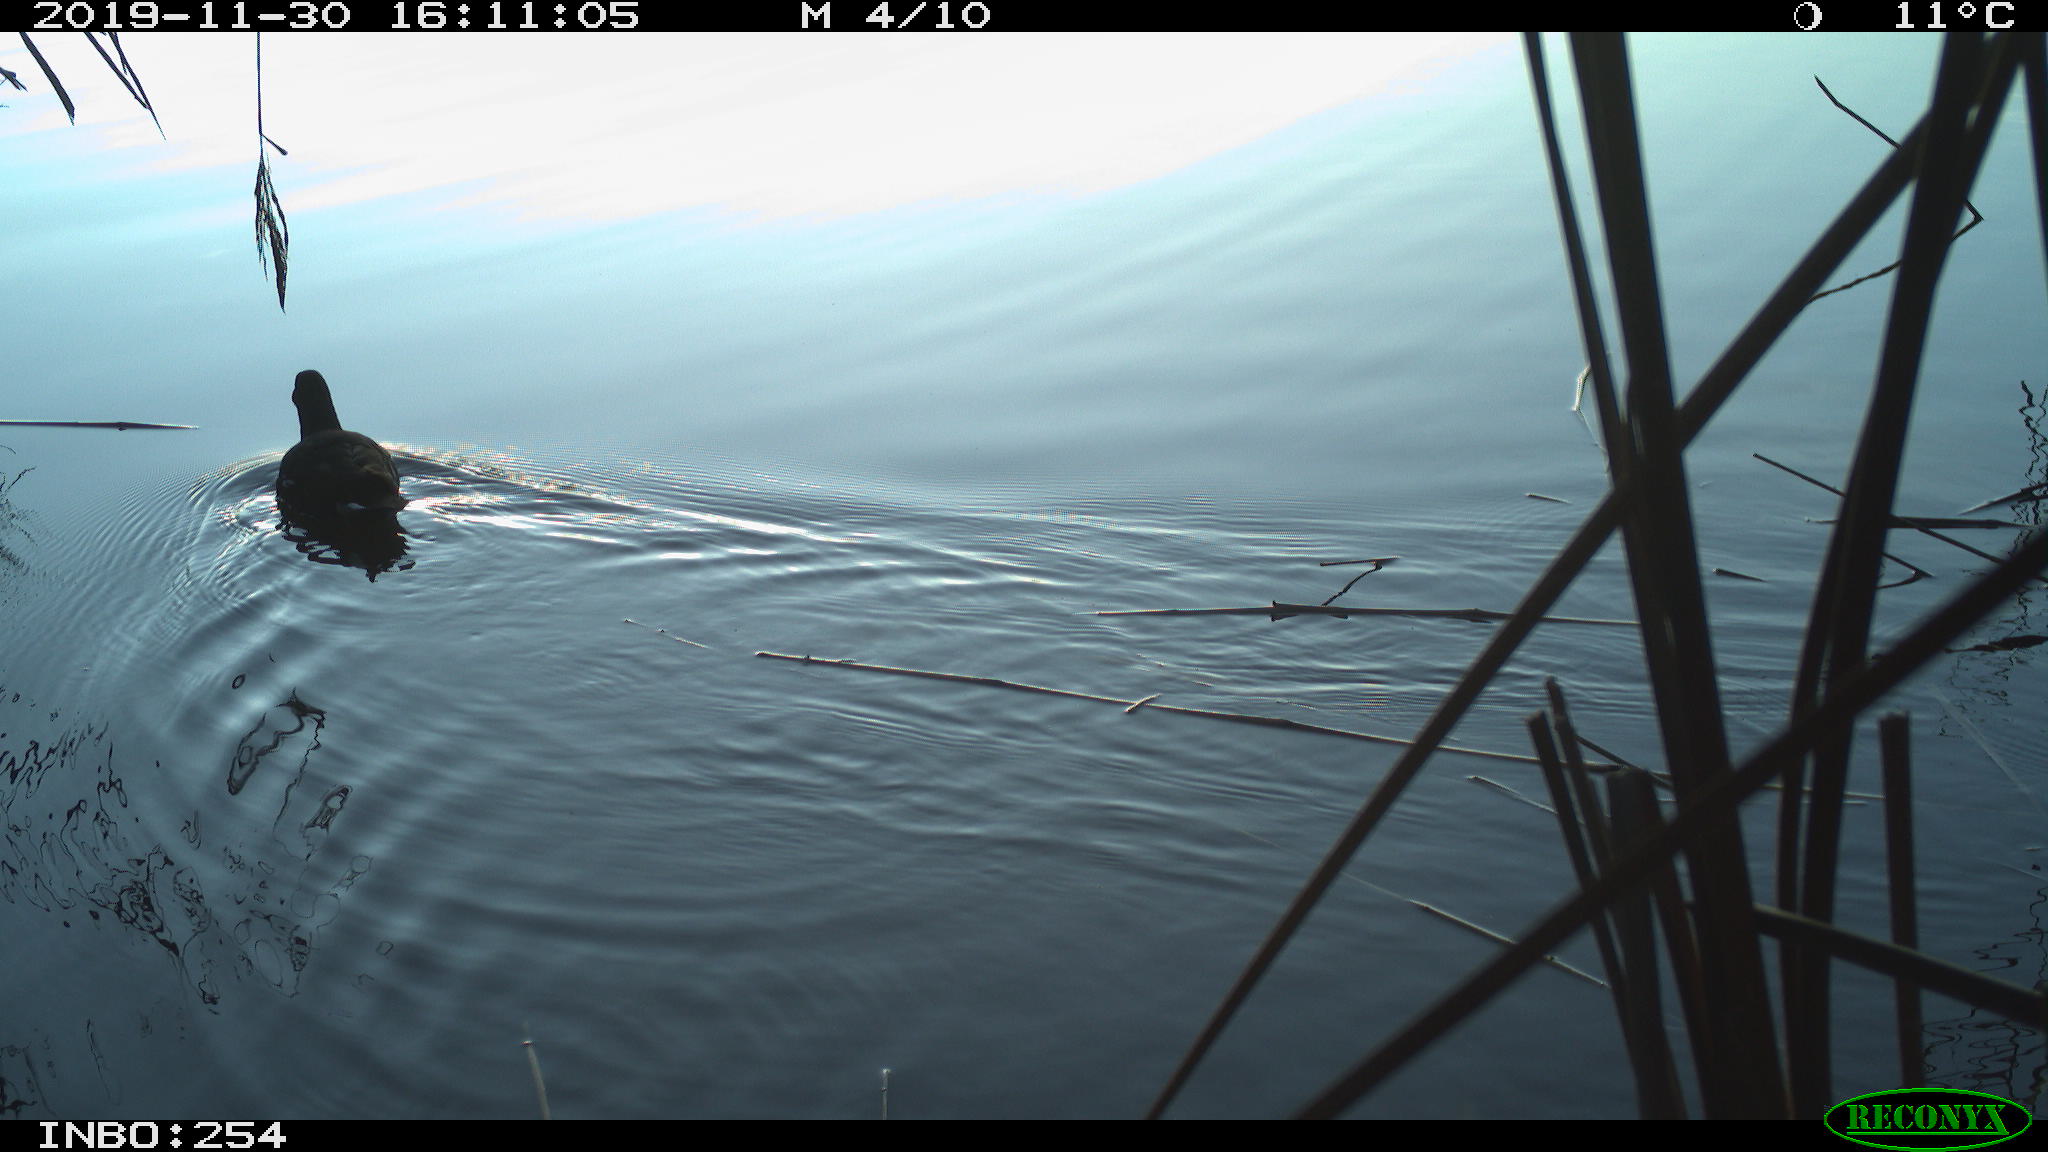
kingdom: Animalia
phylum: Chordata
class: Aves
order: Gruiformes
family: Rallidae
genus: Fulica
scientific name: Fulica atra
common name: Eurasian coot
